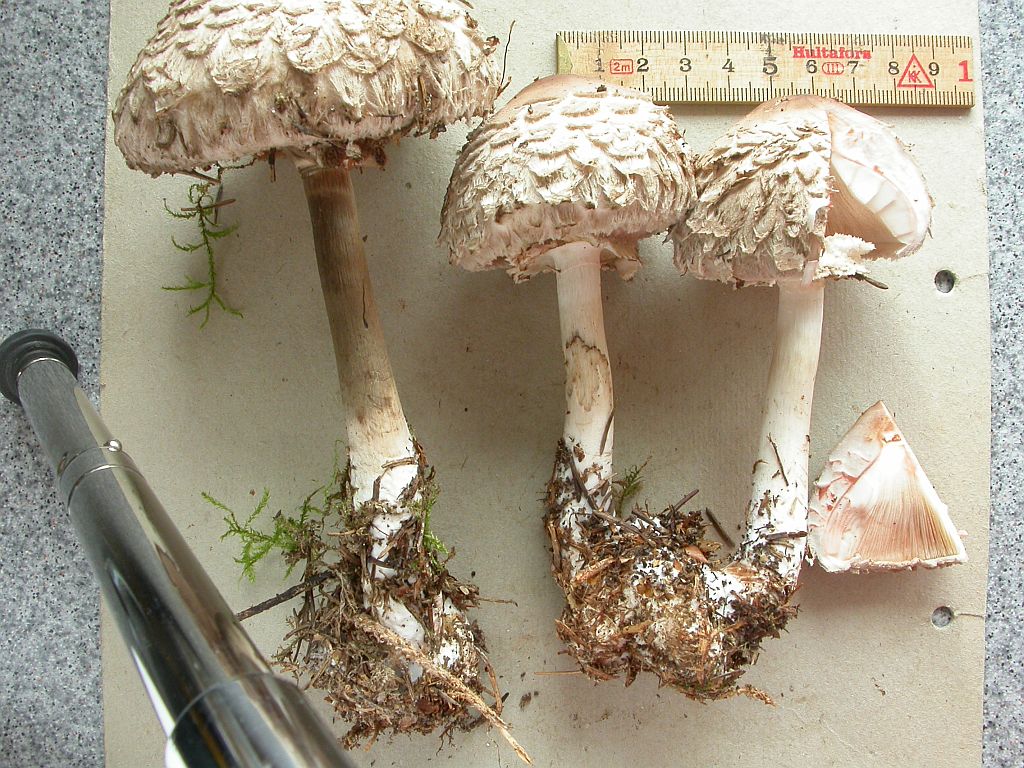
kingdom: Fungi
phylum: Basidiomycota
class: Agaricomycetes
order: Agaricales
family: Agaricaceae
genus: Chlorophyllum
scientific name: Chlorophyllum olivieri
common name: almindelig rabarberhat
